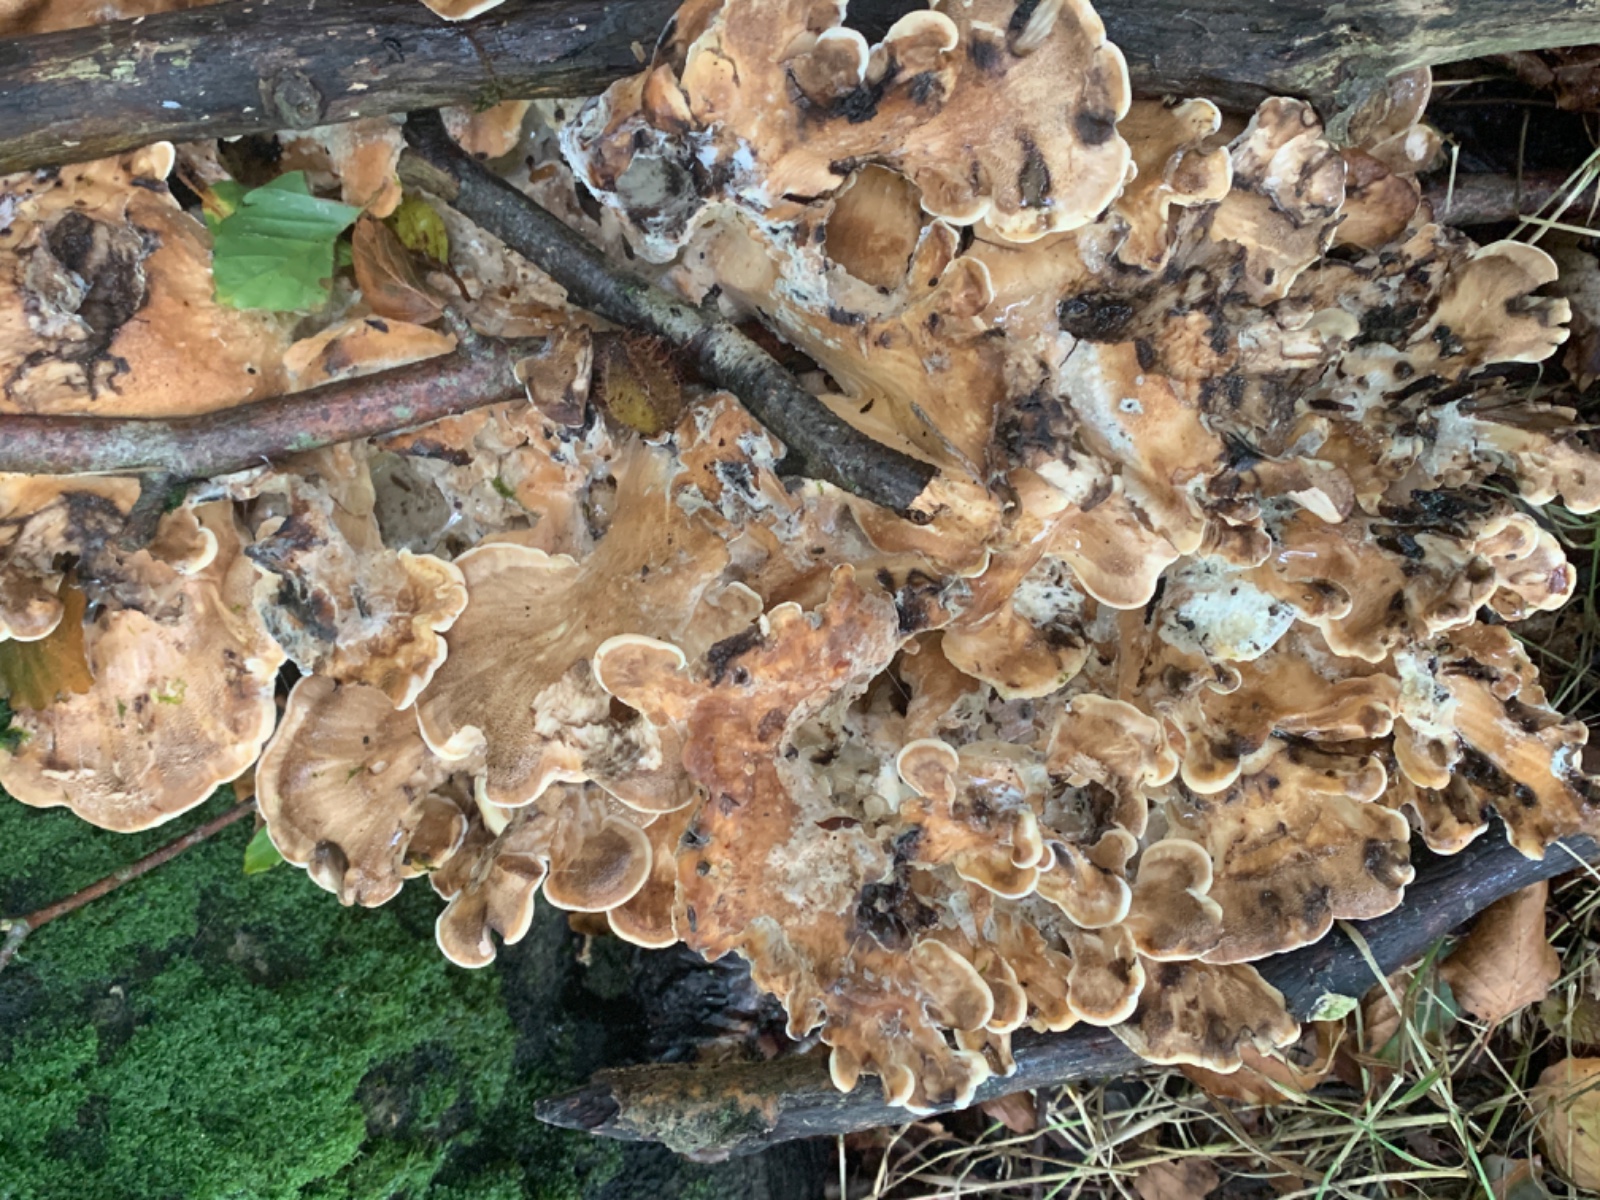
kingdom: Fungi
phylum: Basidiomycota
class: Agaricomycetes
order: Polyporales
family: Meripilaceae
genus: Meripilus
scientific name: Meripilus giganteus
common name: kæmpeporesvamp
